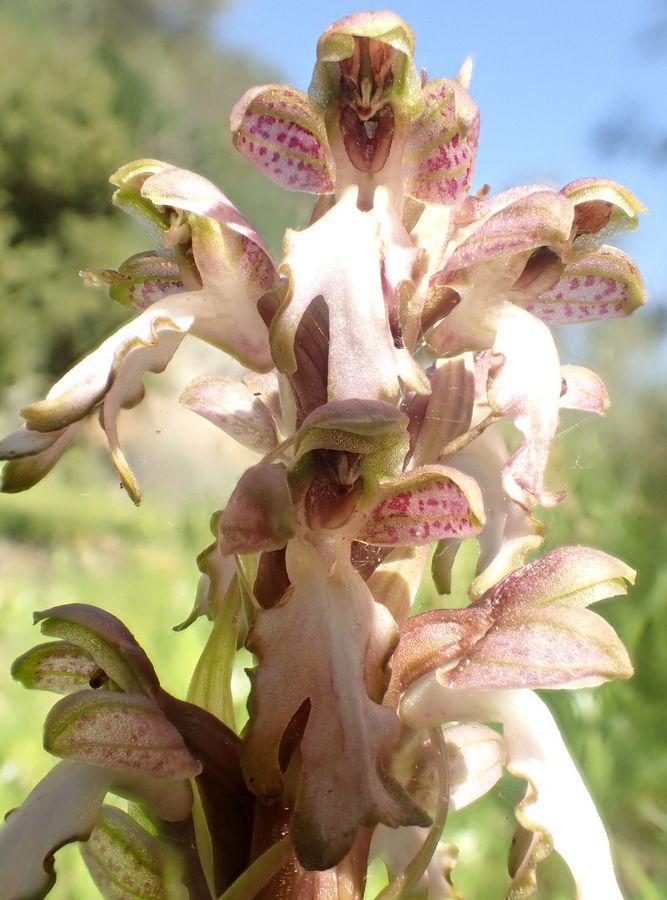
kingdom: Plantae
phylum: Tracheophyta
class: Liliopsida
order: Asparagales
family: Orchidaceae
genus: Himantoglossum
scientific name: Himantoglossum robertianum
